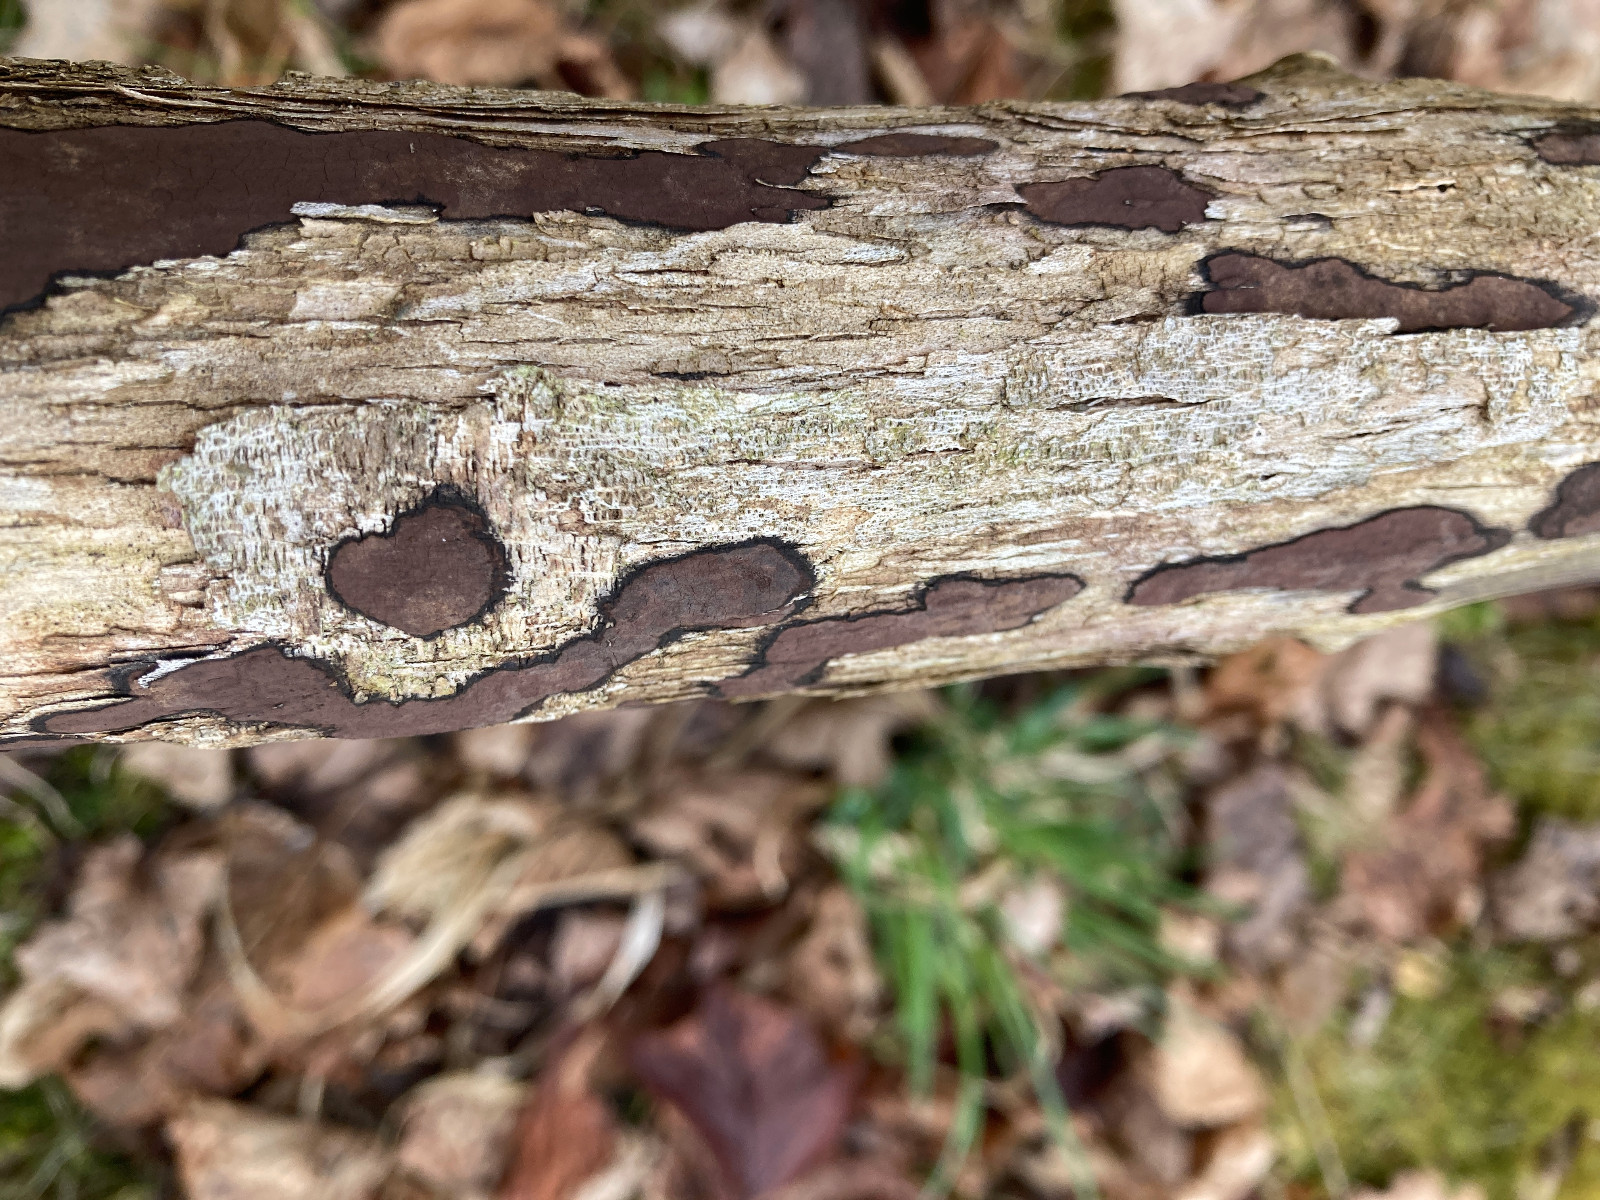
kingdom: Fungi
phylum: Ascomycota
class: Sordariomycetes
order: Xylariales
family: Hypoxylaceae
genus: Hypoxylon
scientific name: Hypoxylon petriniae
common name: nedsænket kulbær
